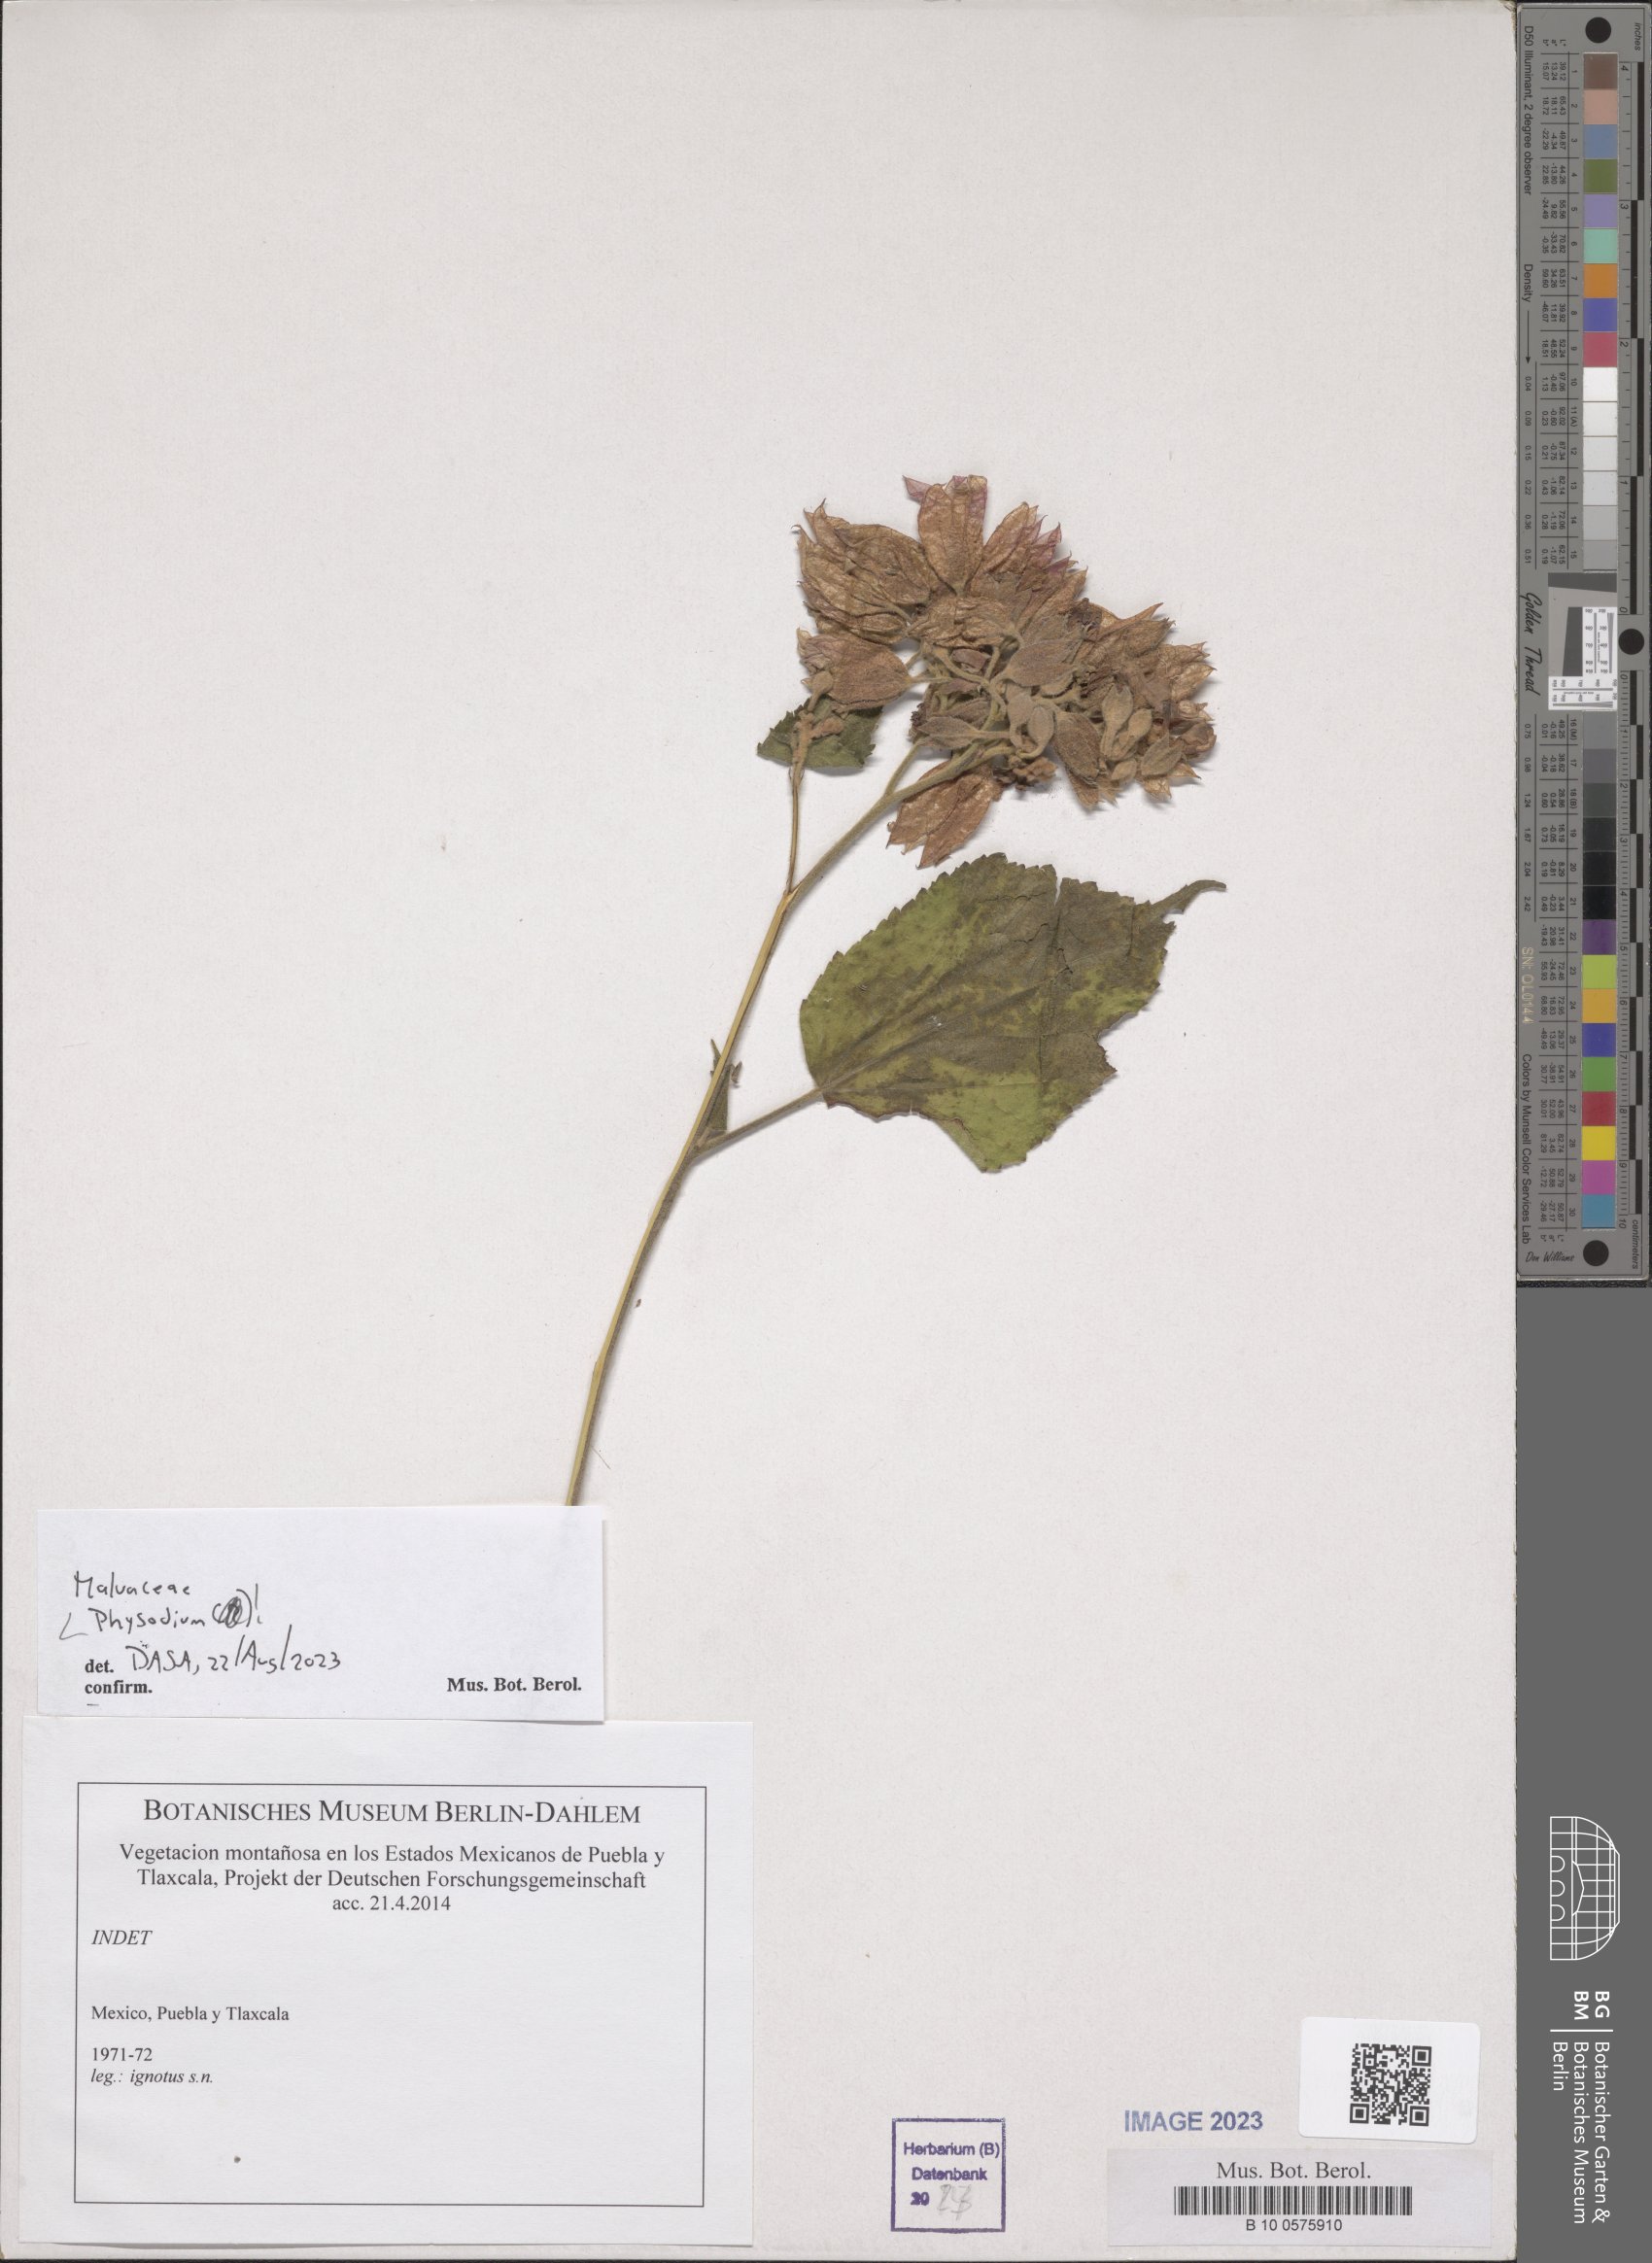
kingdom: Plantae
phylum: Tracheophyta
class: Magnoliopsida
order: Malvales
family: Malvaceae
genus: Physodium
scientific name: Physodium
